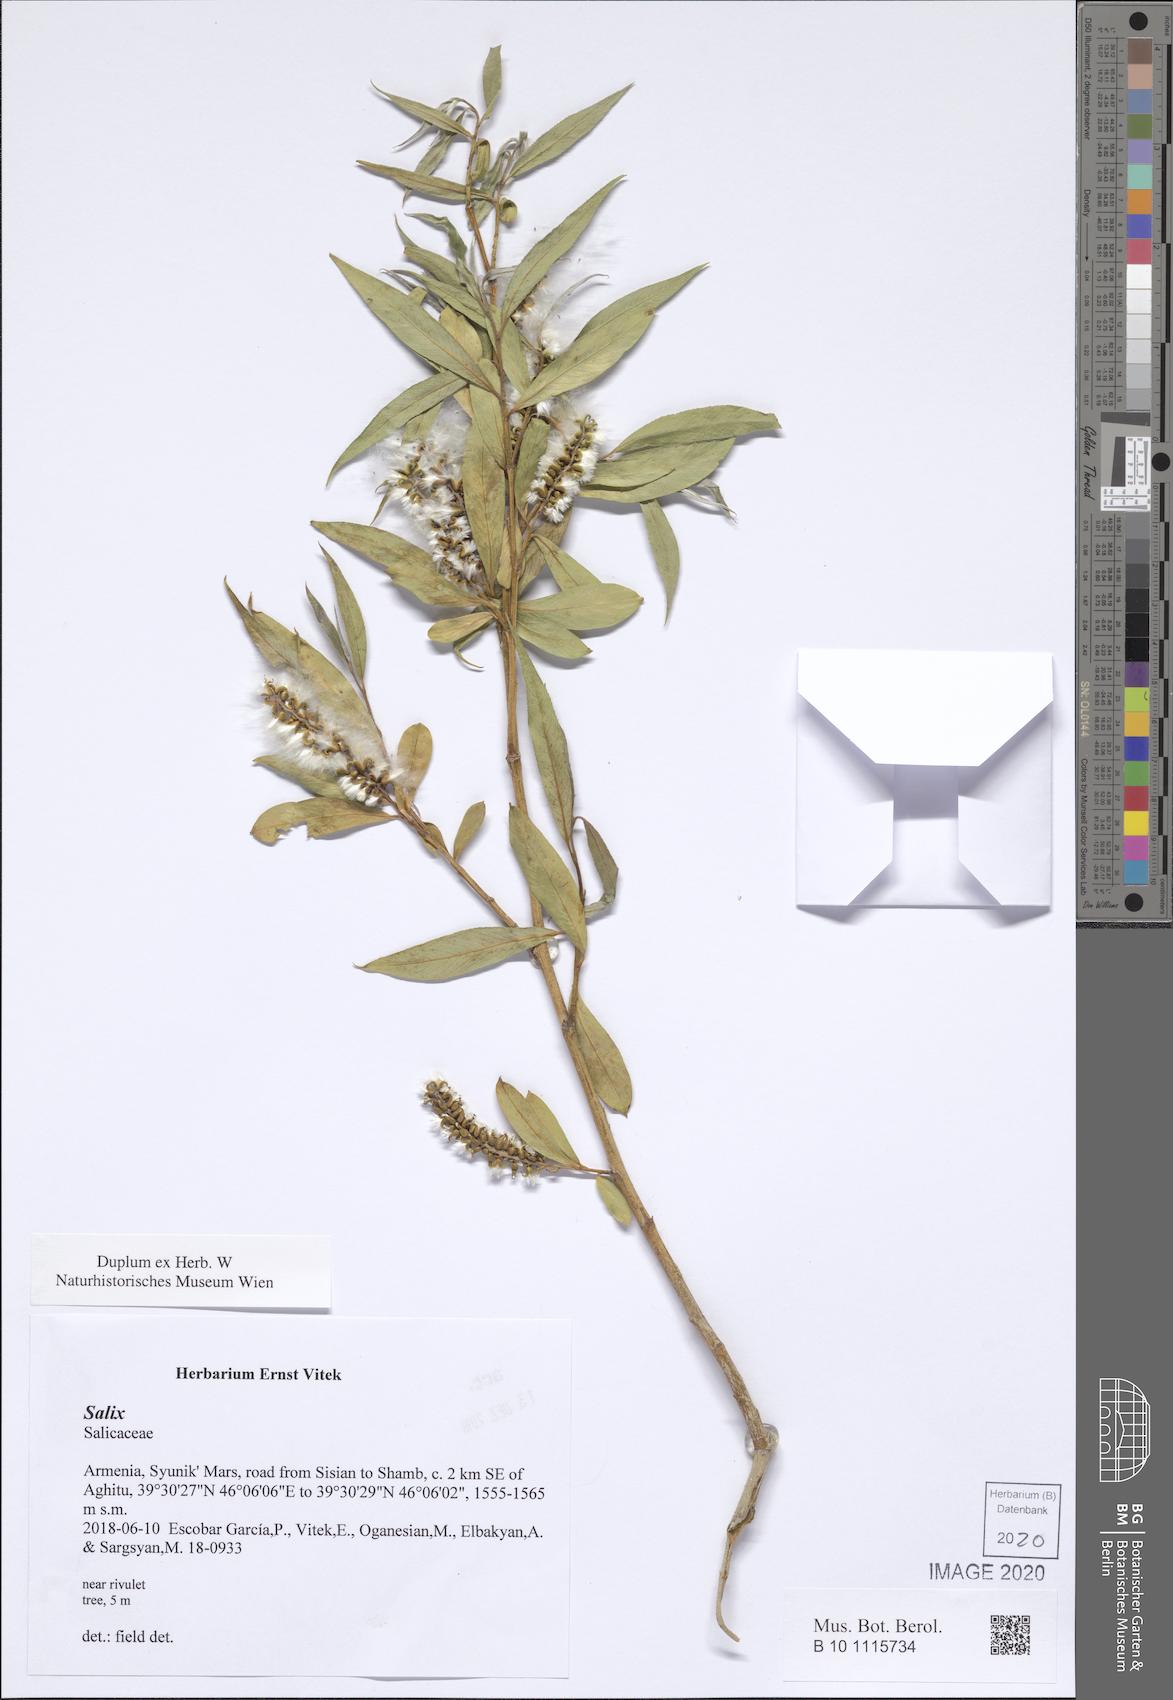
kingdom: Plantae
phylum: Tracheophyta
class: Magnoliopsida
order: Malpighiales
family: Salicaceae
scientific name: Salicaceae
